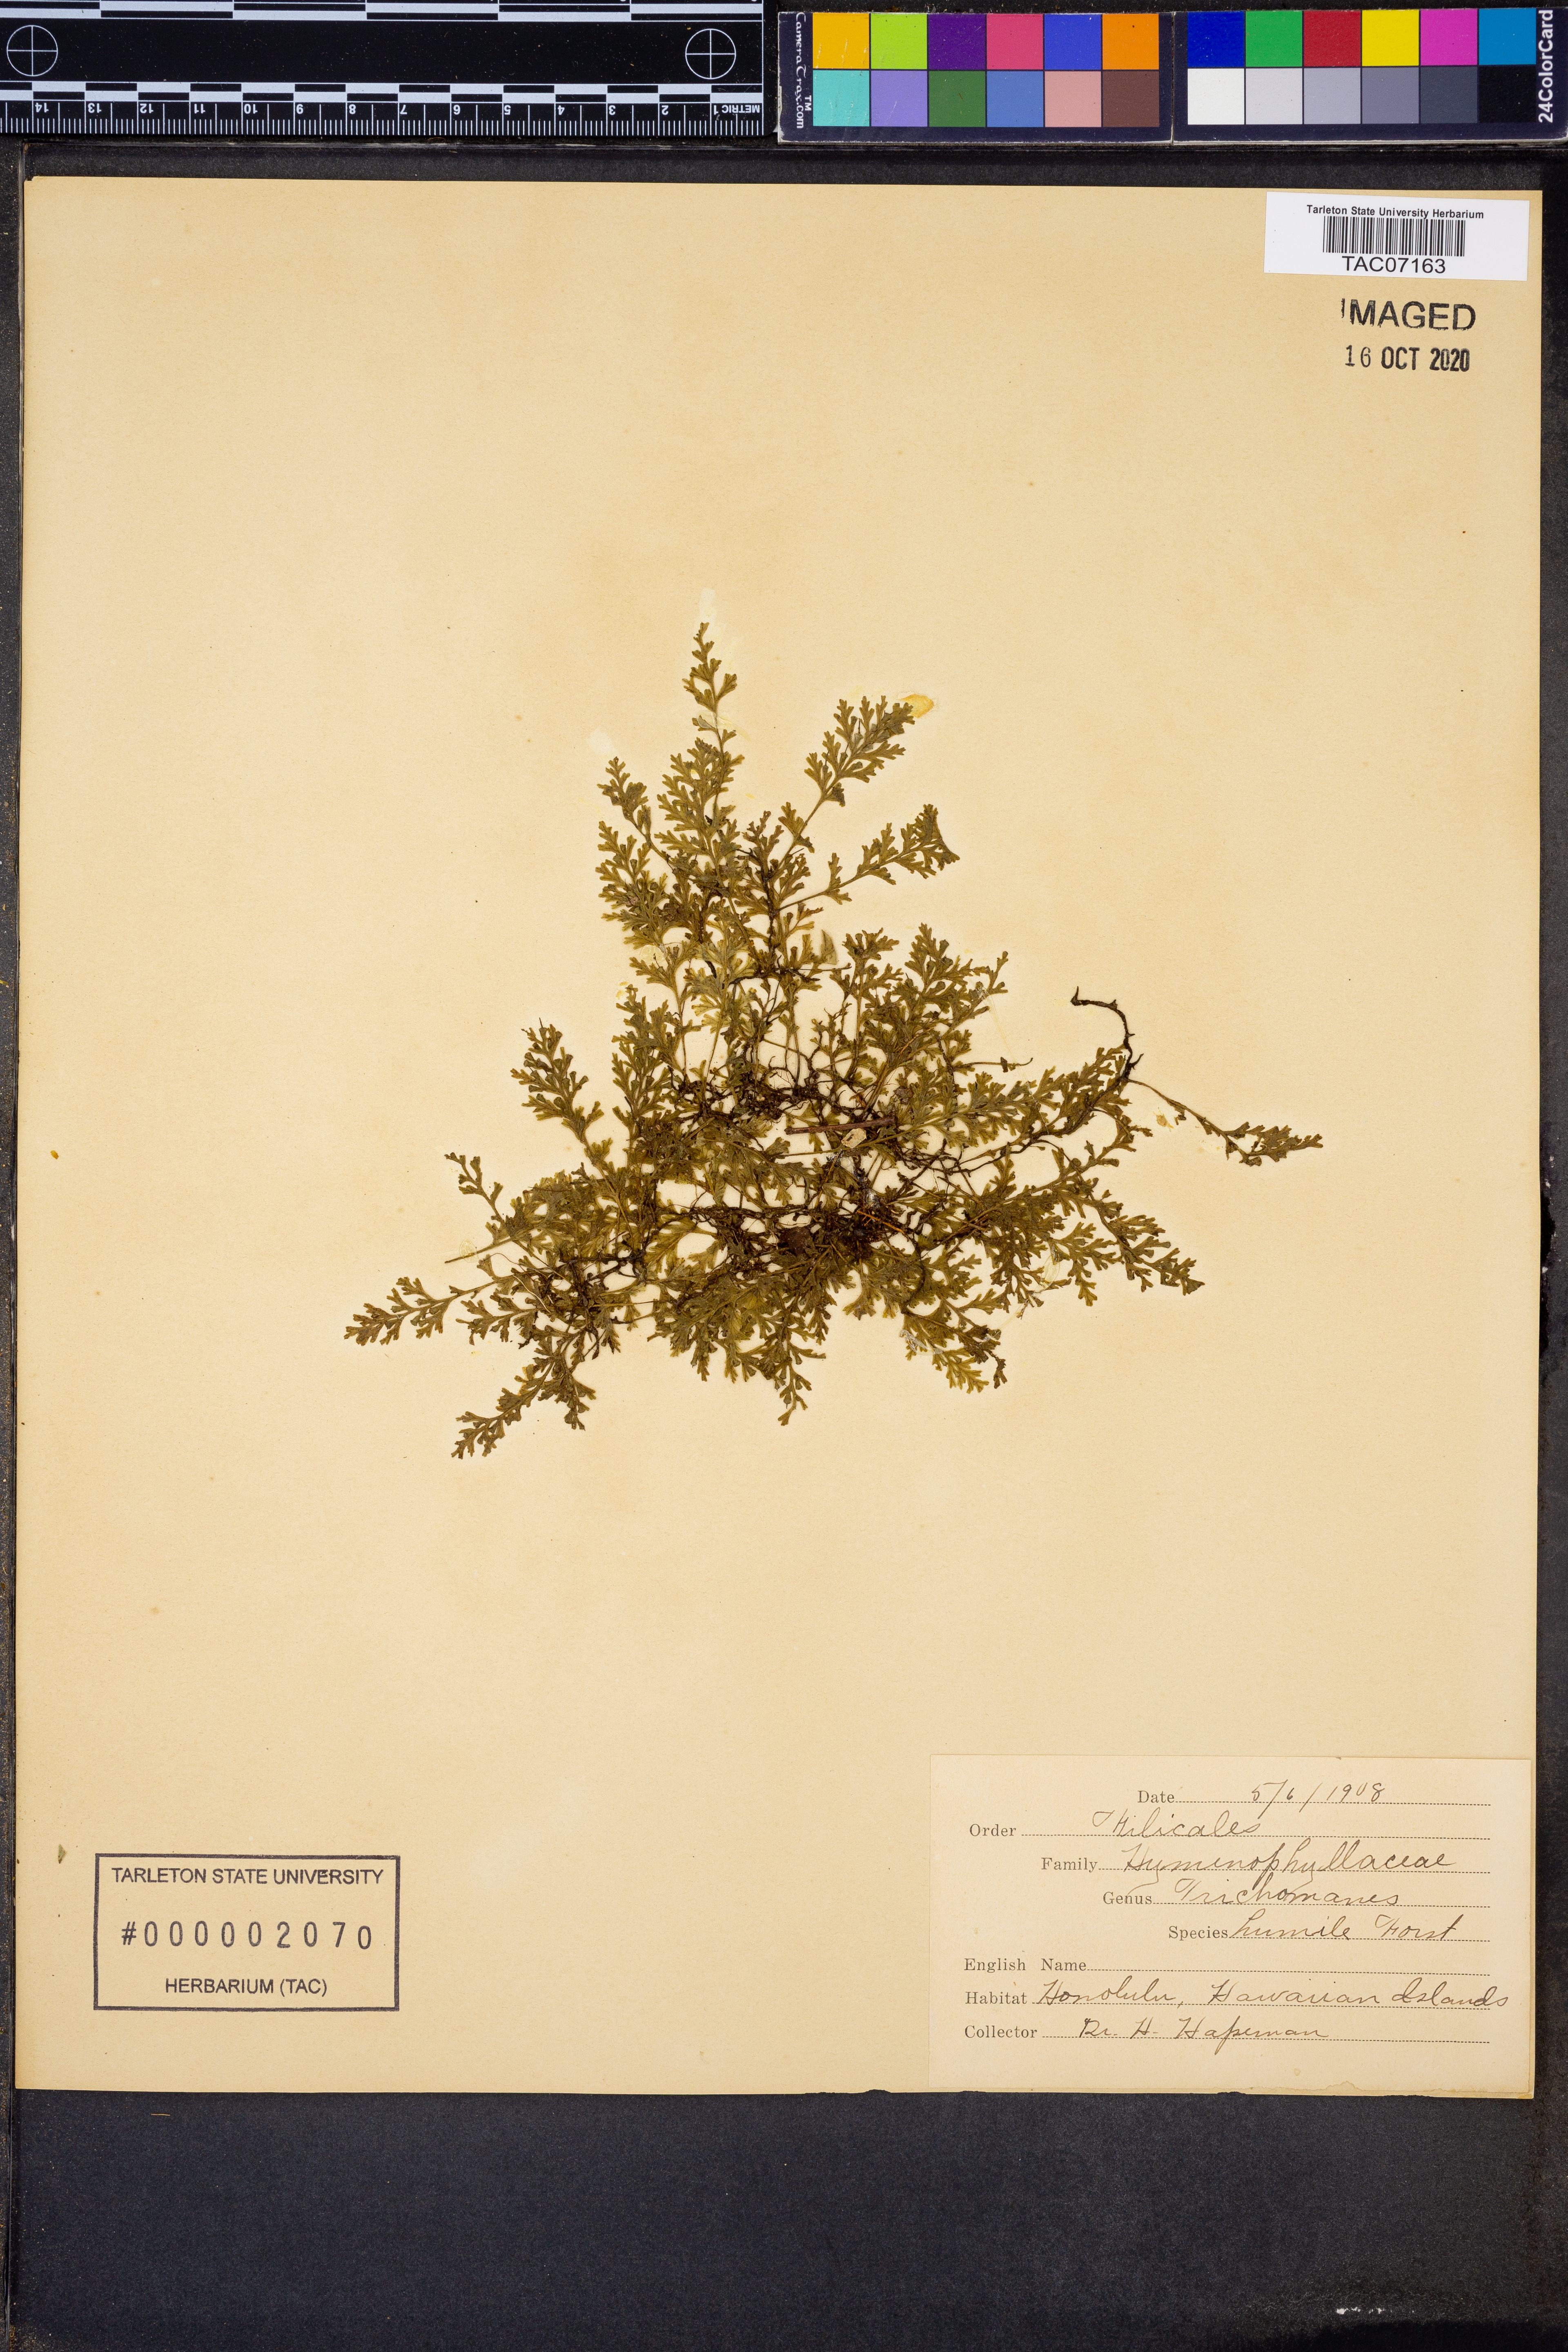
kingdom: Plantae
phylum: Tracheophyta
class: Polypodiopsida
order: Hymenophyllales
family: Hymenophyllaceae
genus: Crepidomanes
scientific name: Crepidomanes humile
